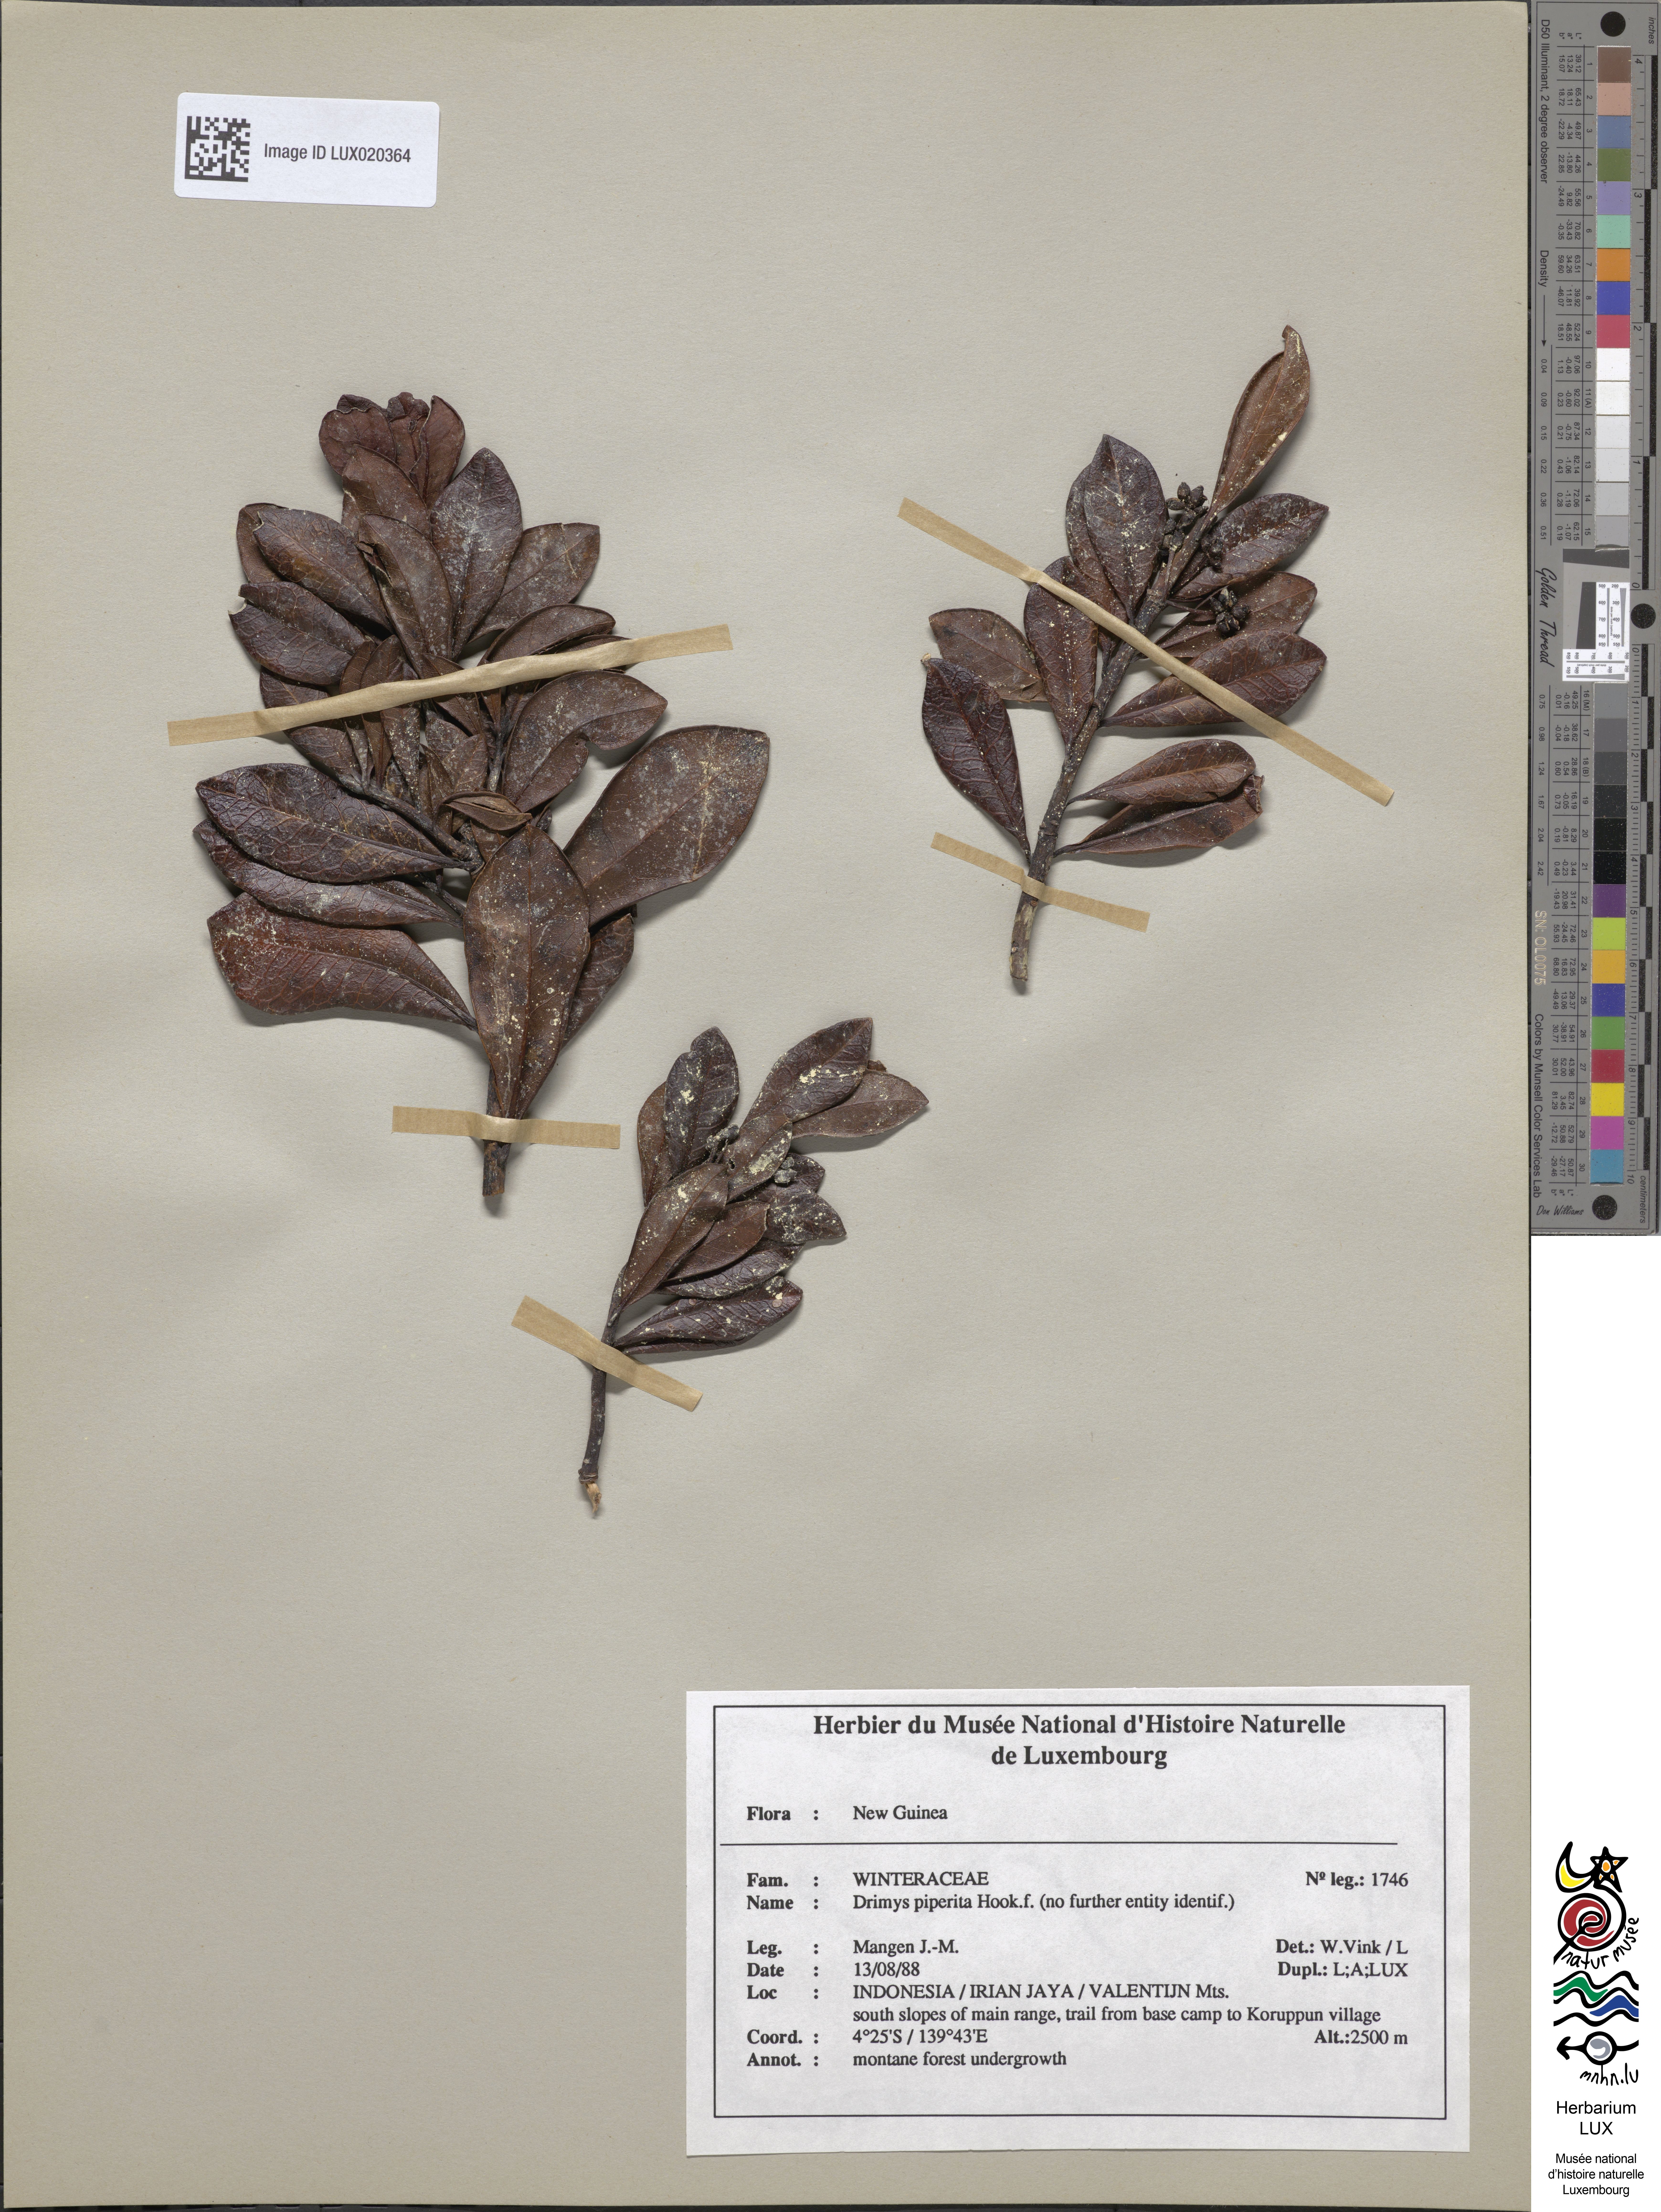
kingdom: Plantae
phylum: Tracheophyta
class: Magnoliopsida
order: Canellales
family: Winteraceae
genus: Drimys
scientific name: Drimys piperita
